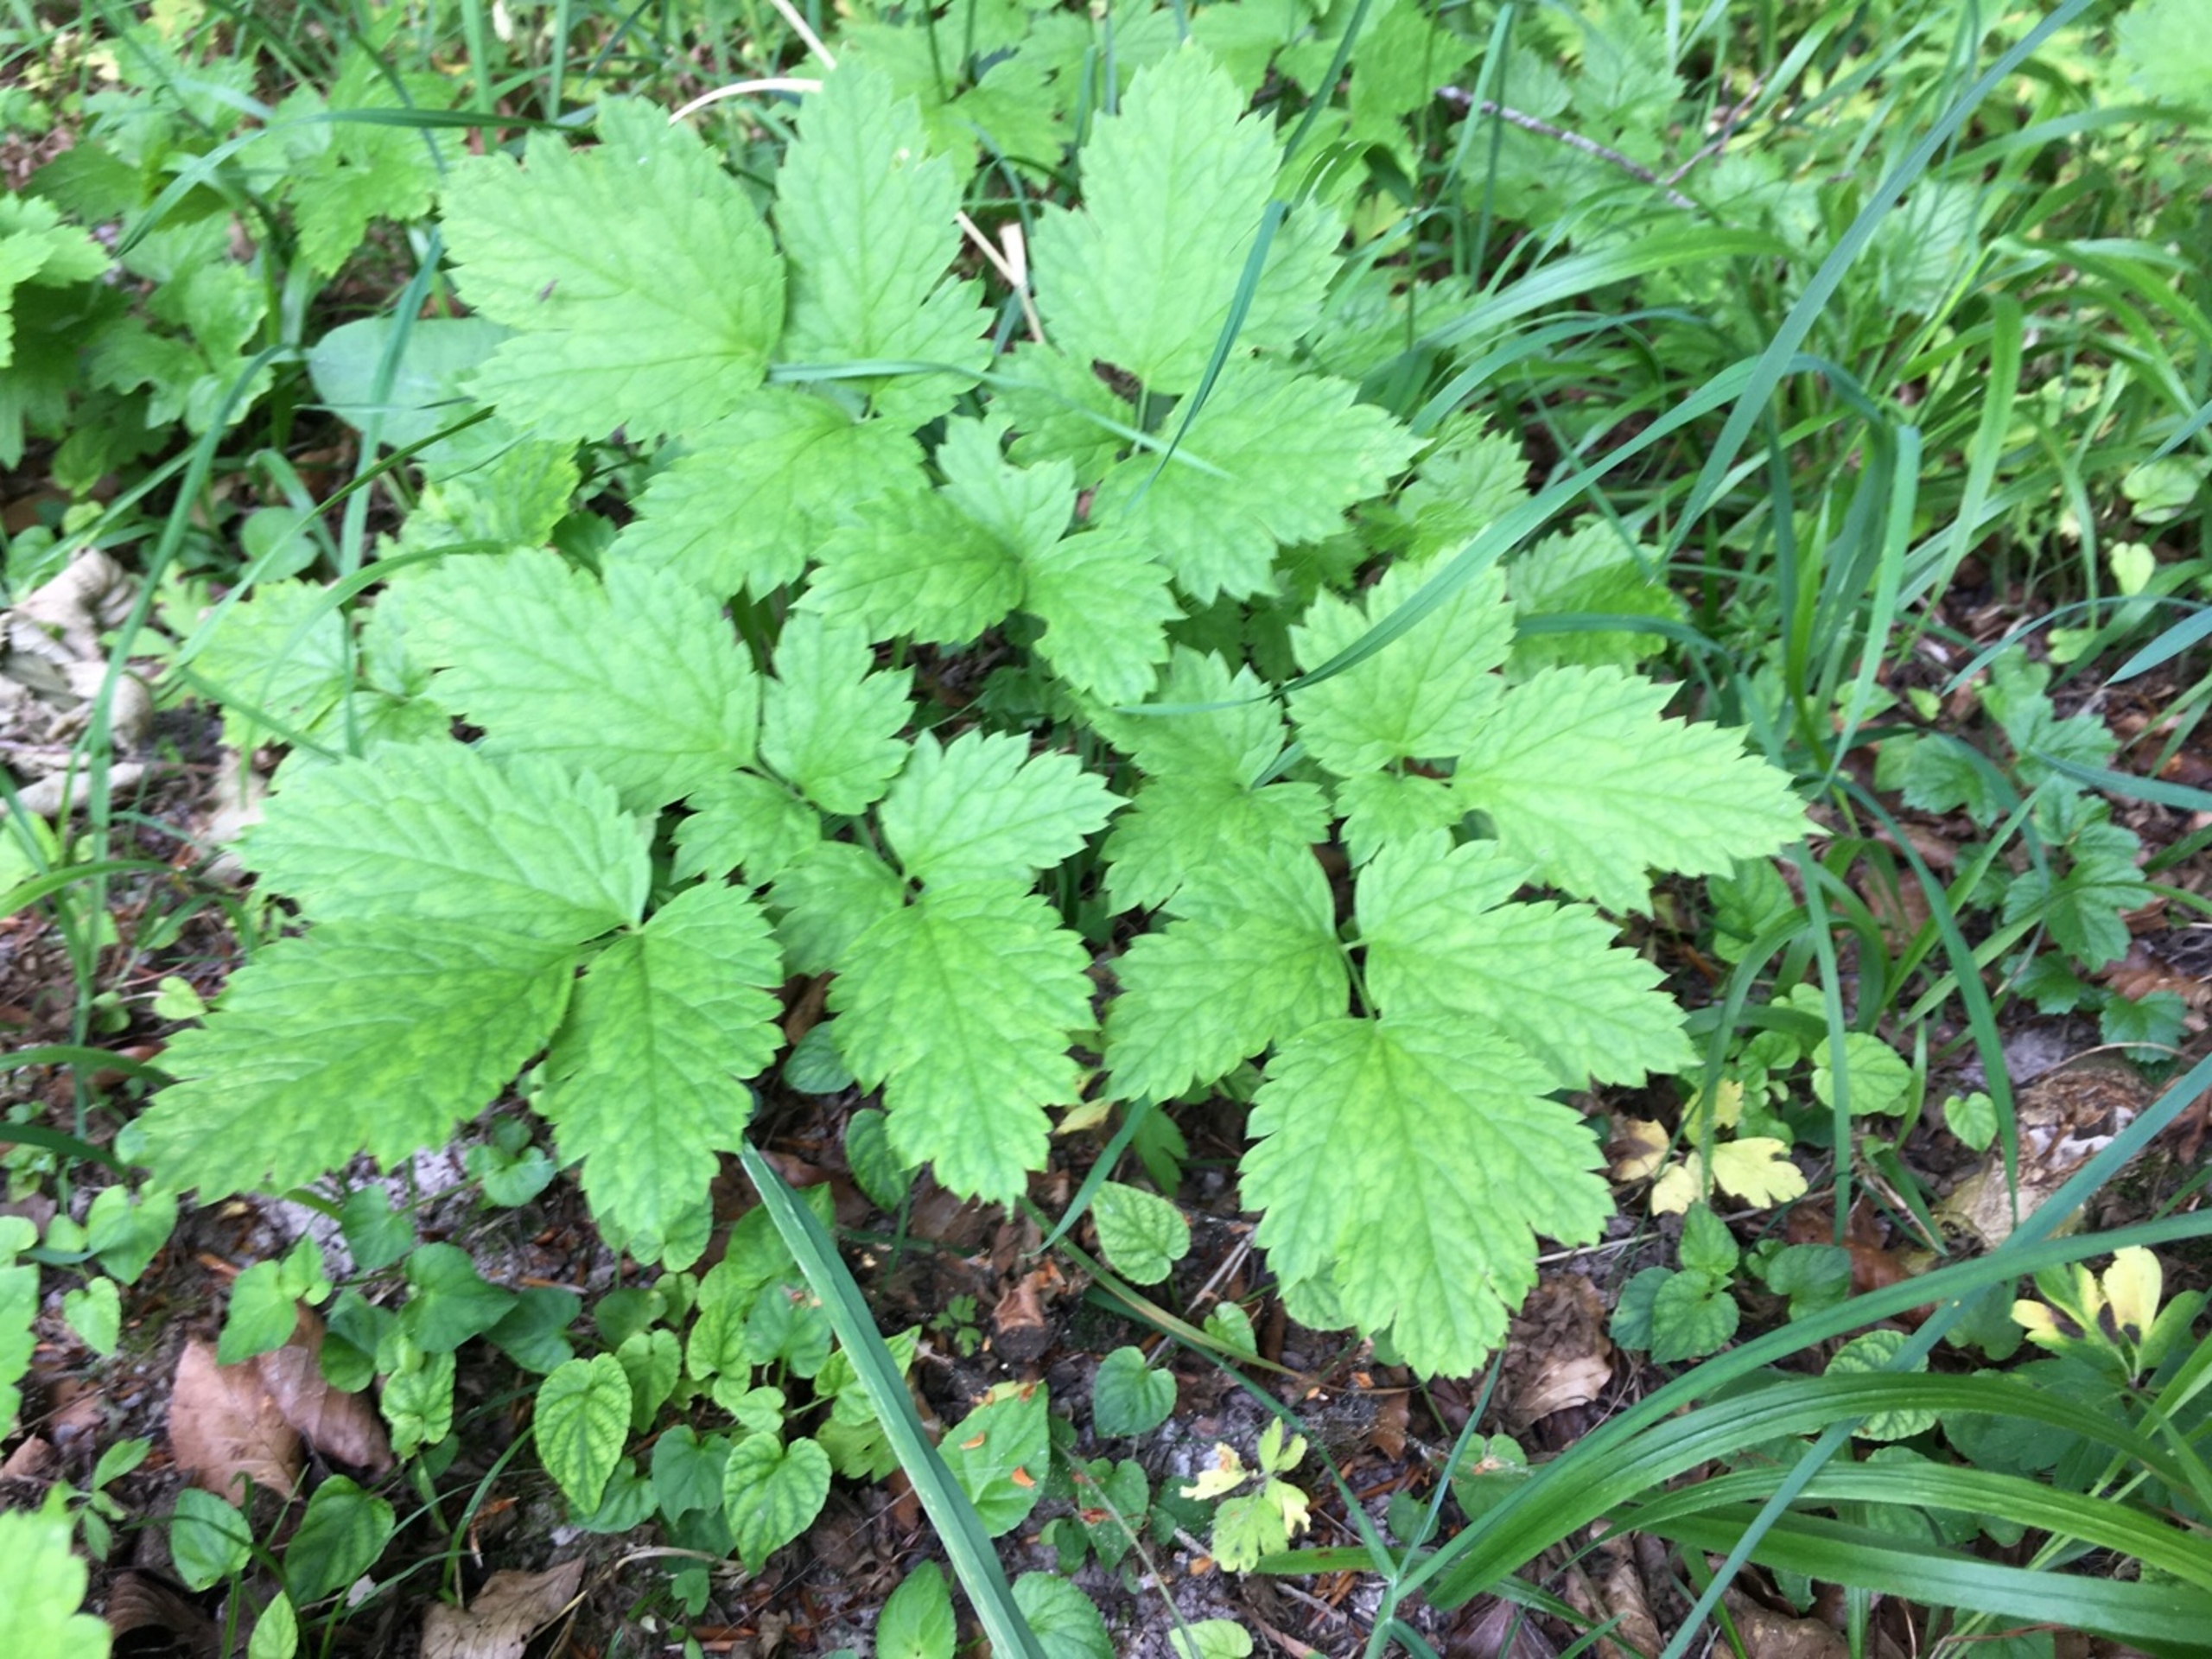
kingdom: Plantae
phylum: Tracheophyta
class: Magnoliopsida
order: Ranunculales
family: Ranunculaceae
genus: Actaea
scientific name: Actaea spicata
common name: Druemunke
